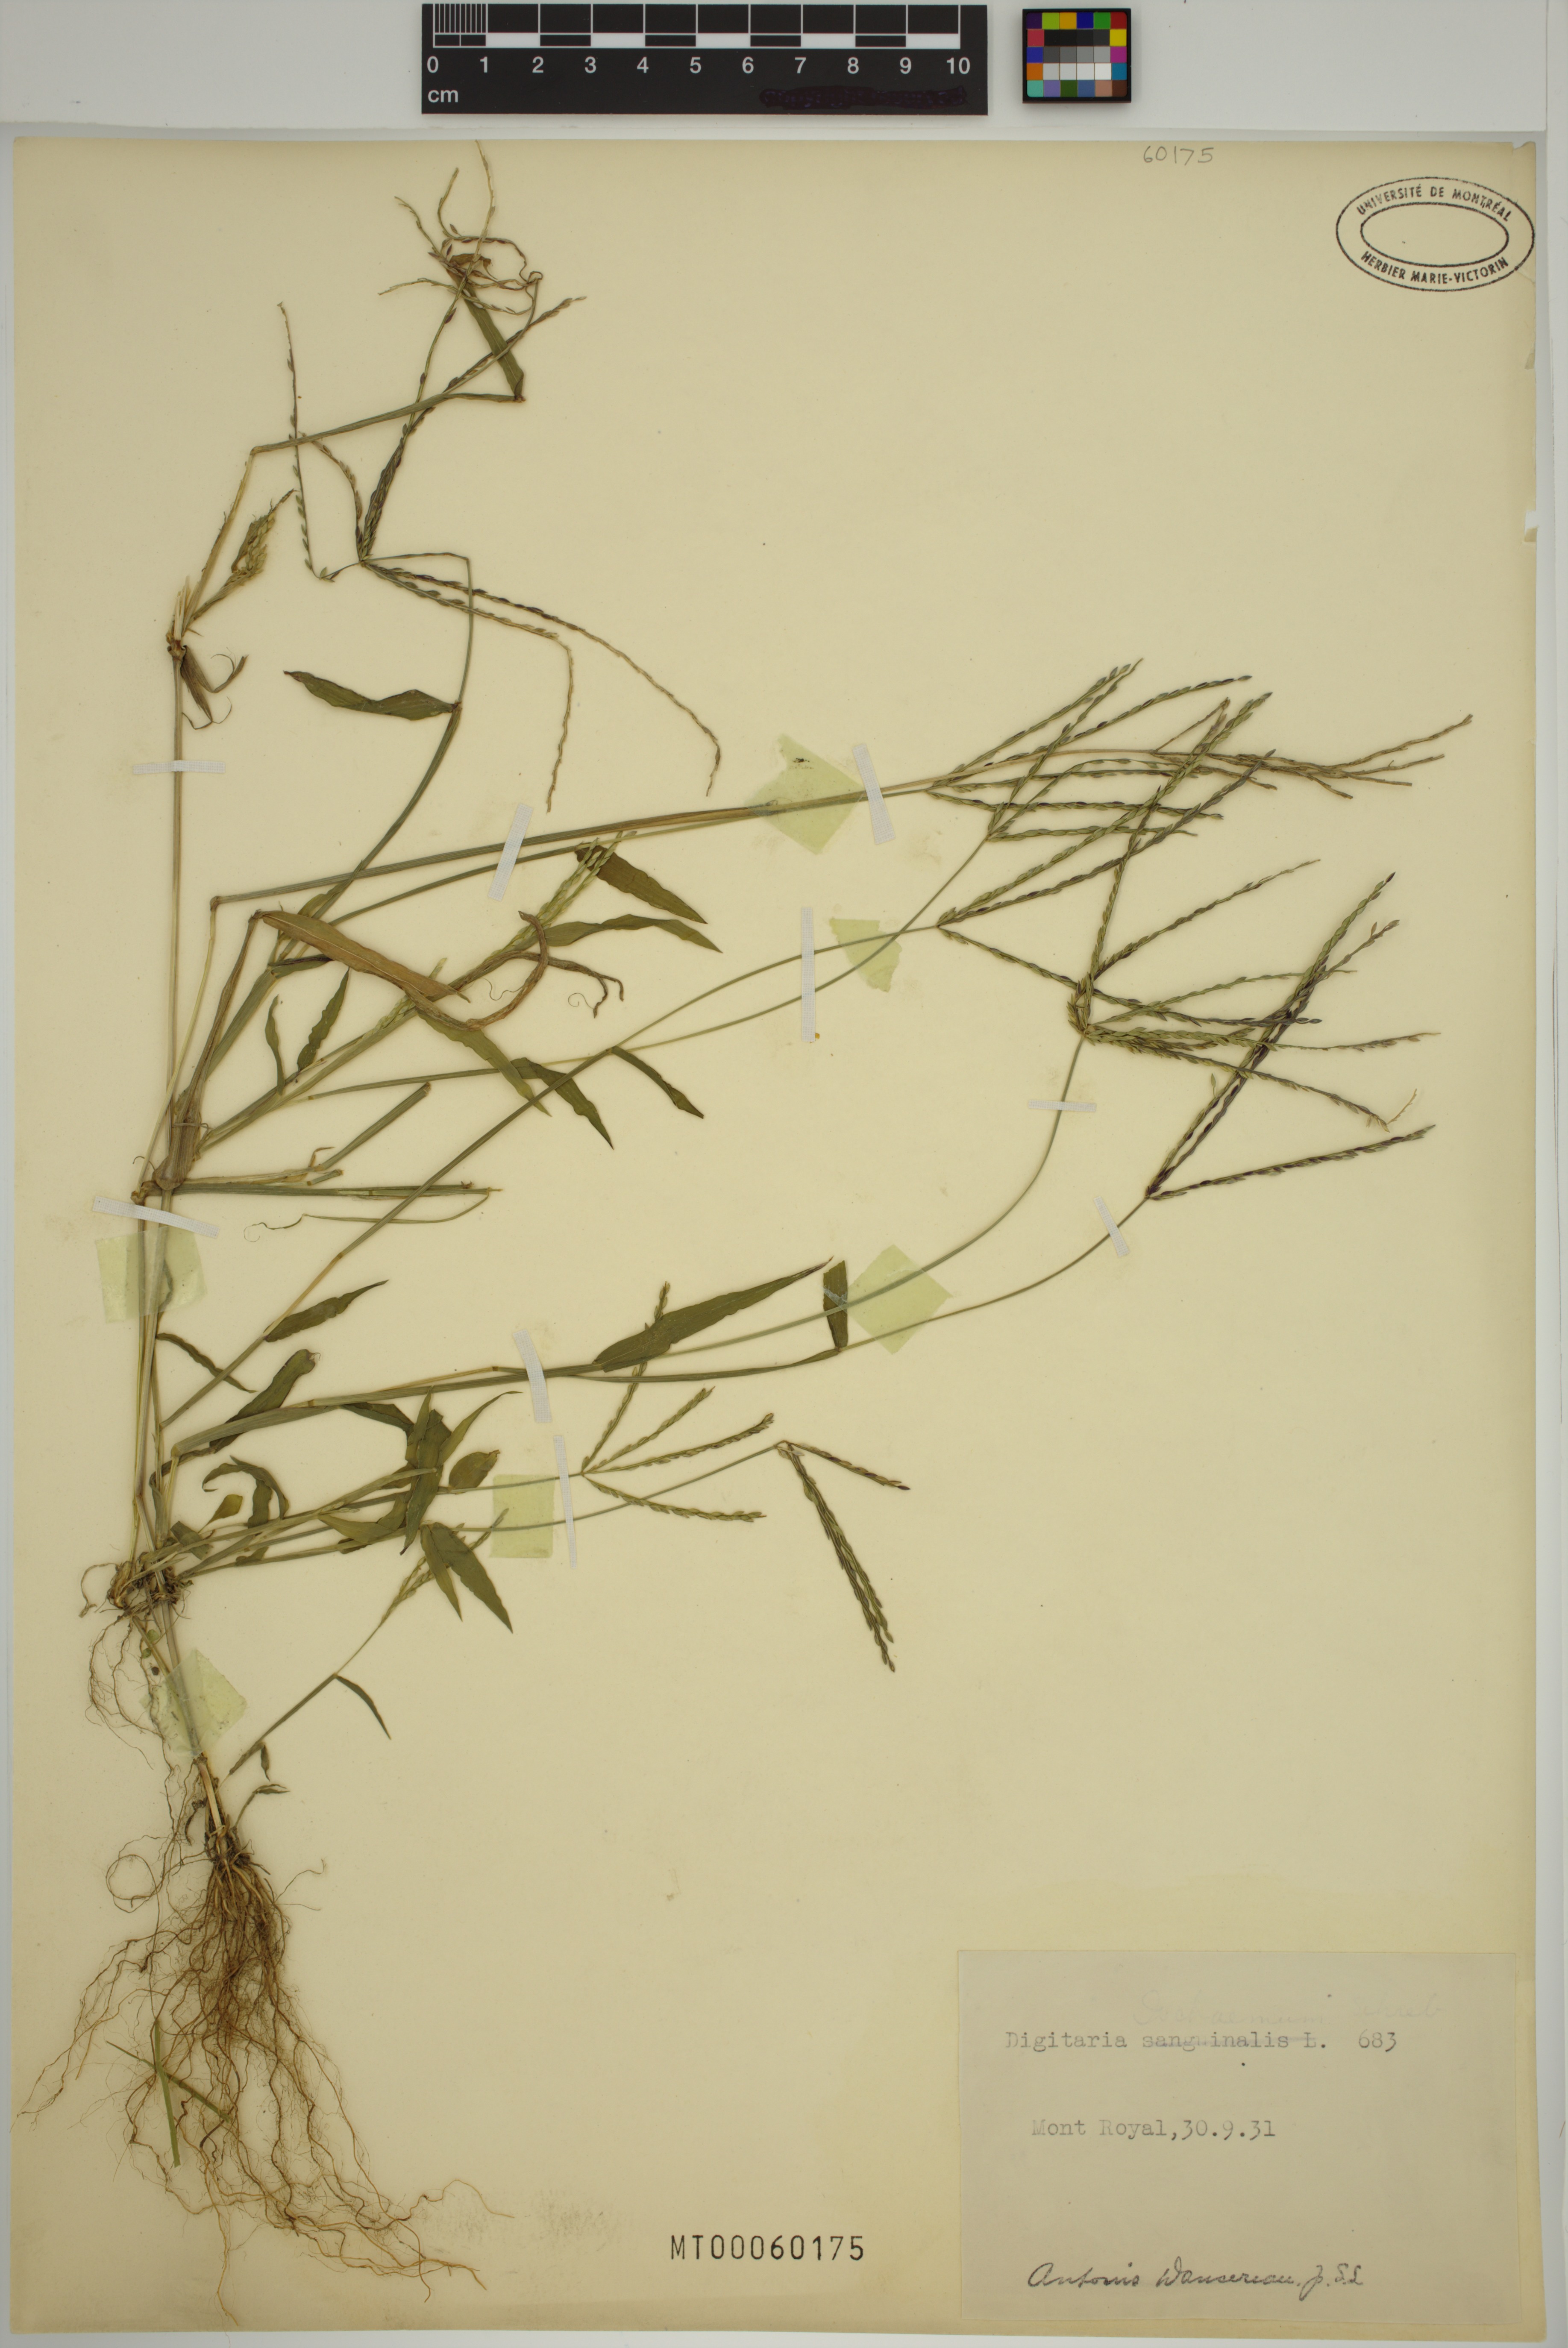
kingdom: Plantae
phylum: Tracheophyta
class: Liliopsida
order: Poales
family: Poaceae
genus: Digitaria
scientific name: Digitaria ischaemum
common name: Smooth crabgrass
